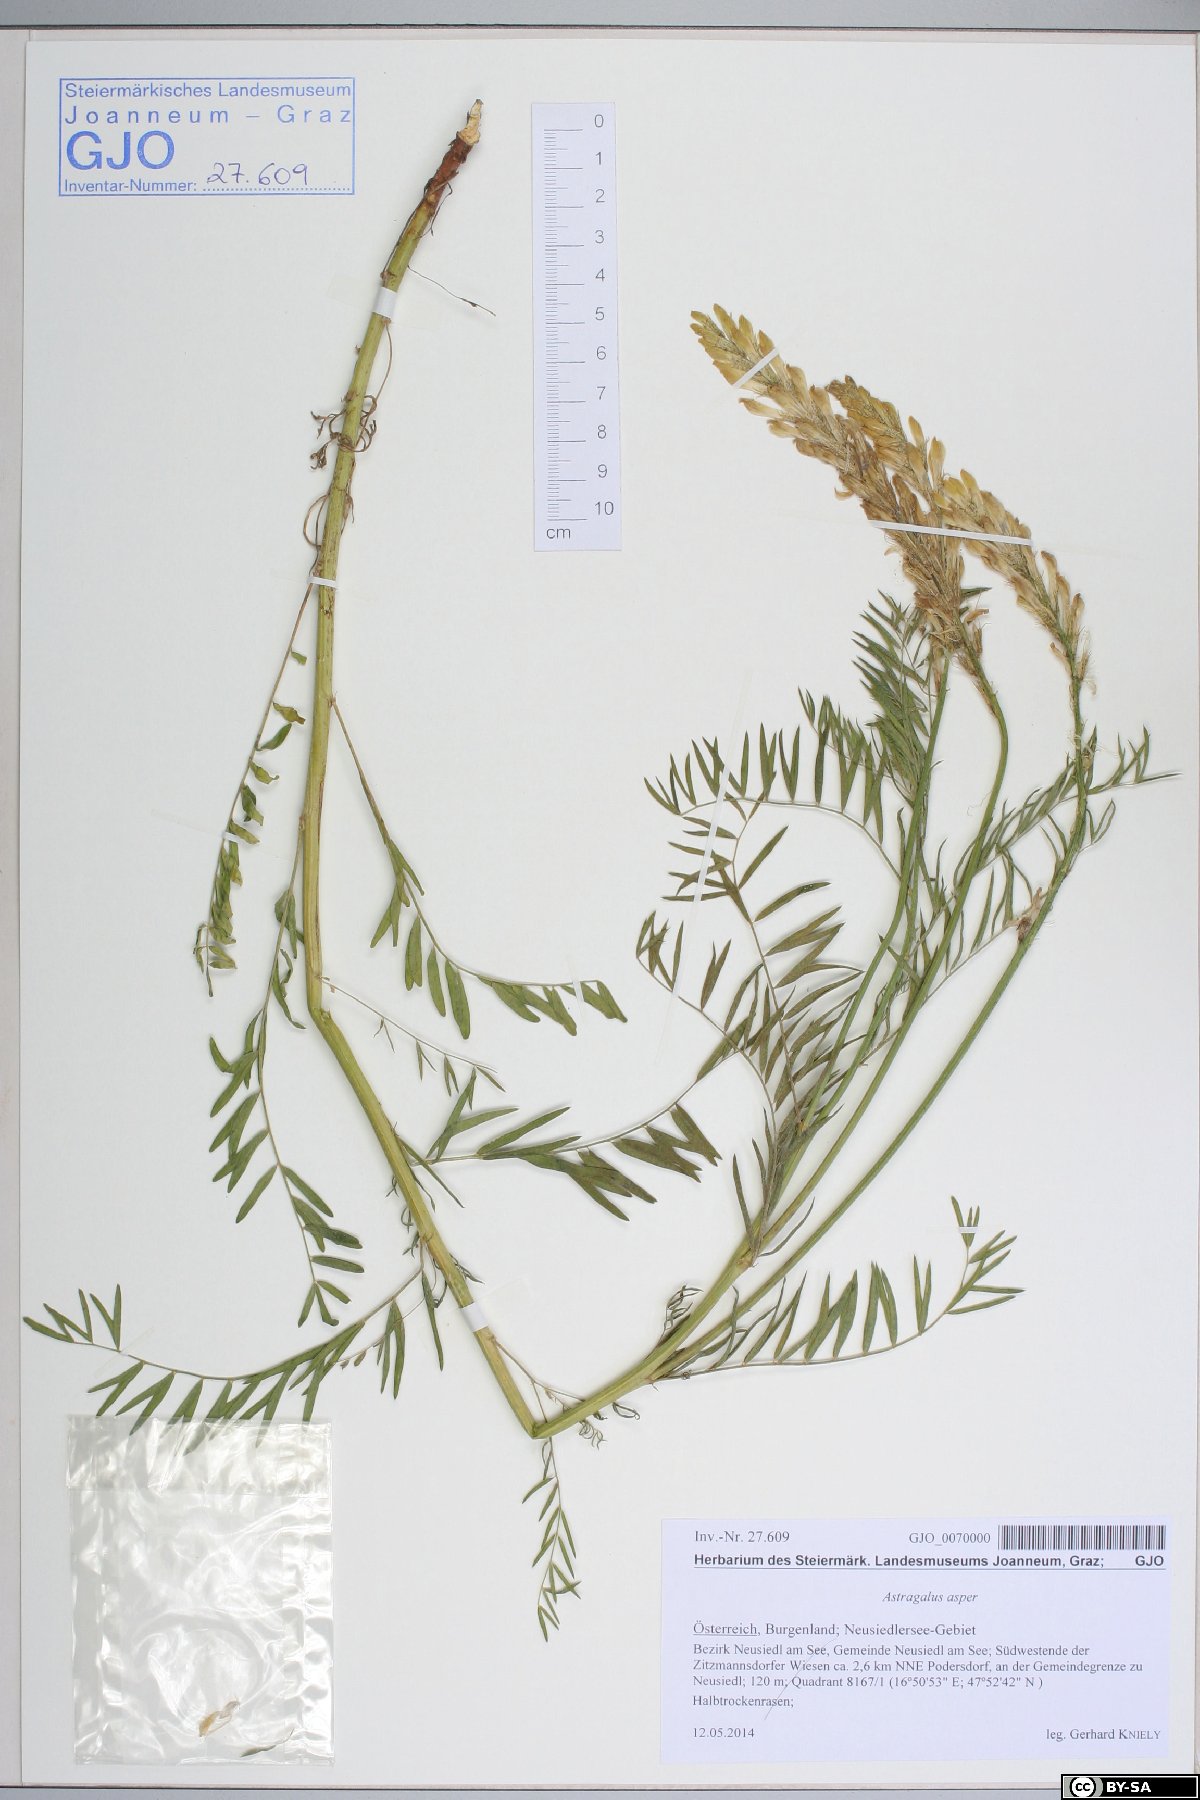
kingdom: Plantae
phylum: Tracheophyta
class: Magnoliopsida
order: Fabales
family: Fabaceae
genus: Astragalus
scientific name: Astragalus asper
